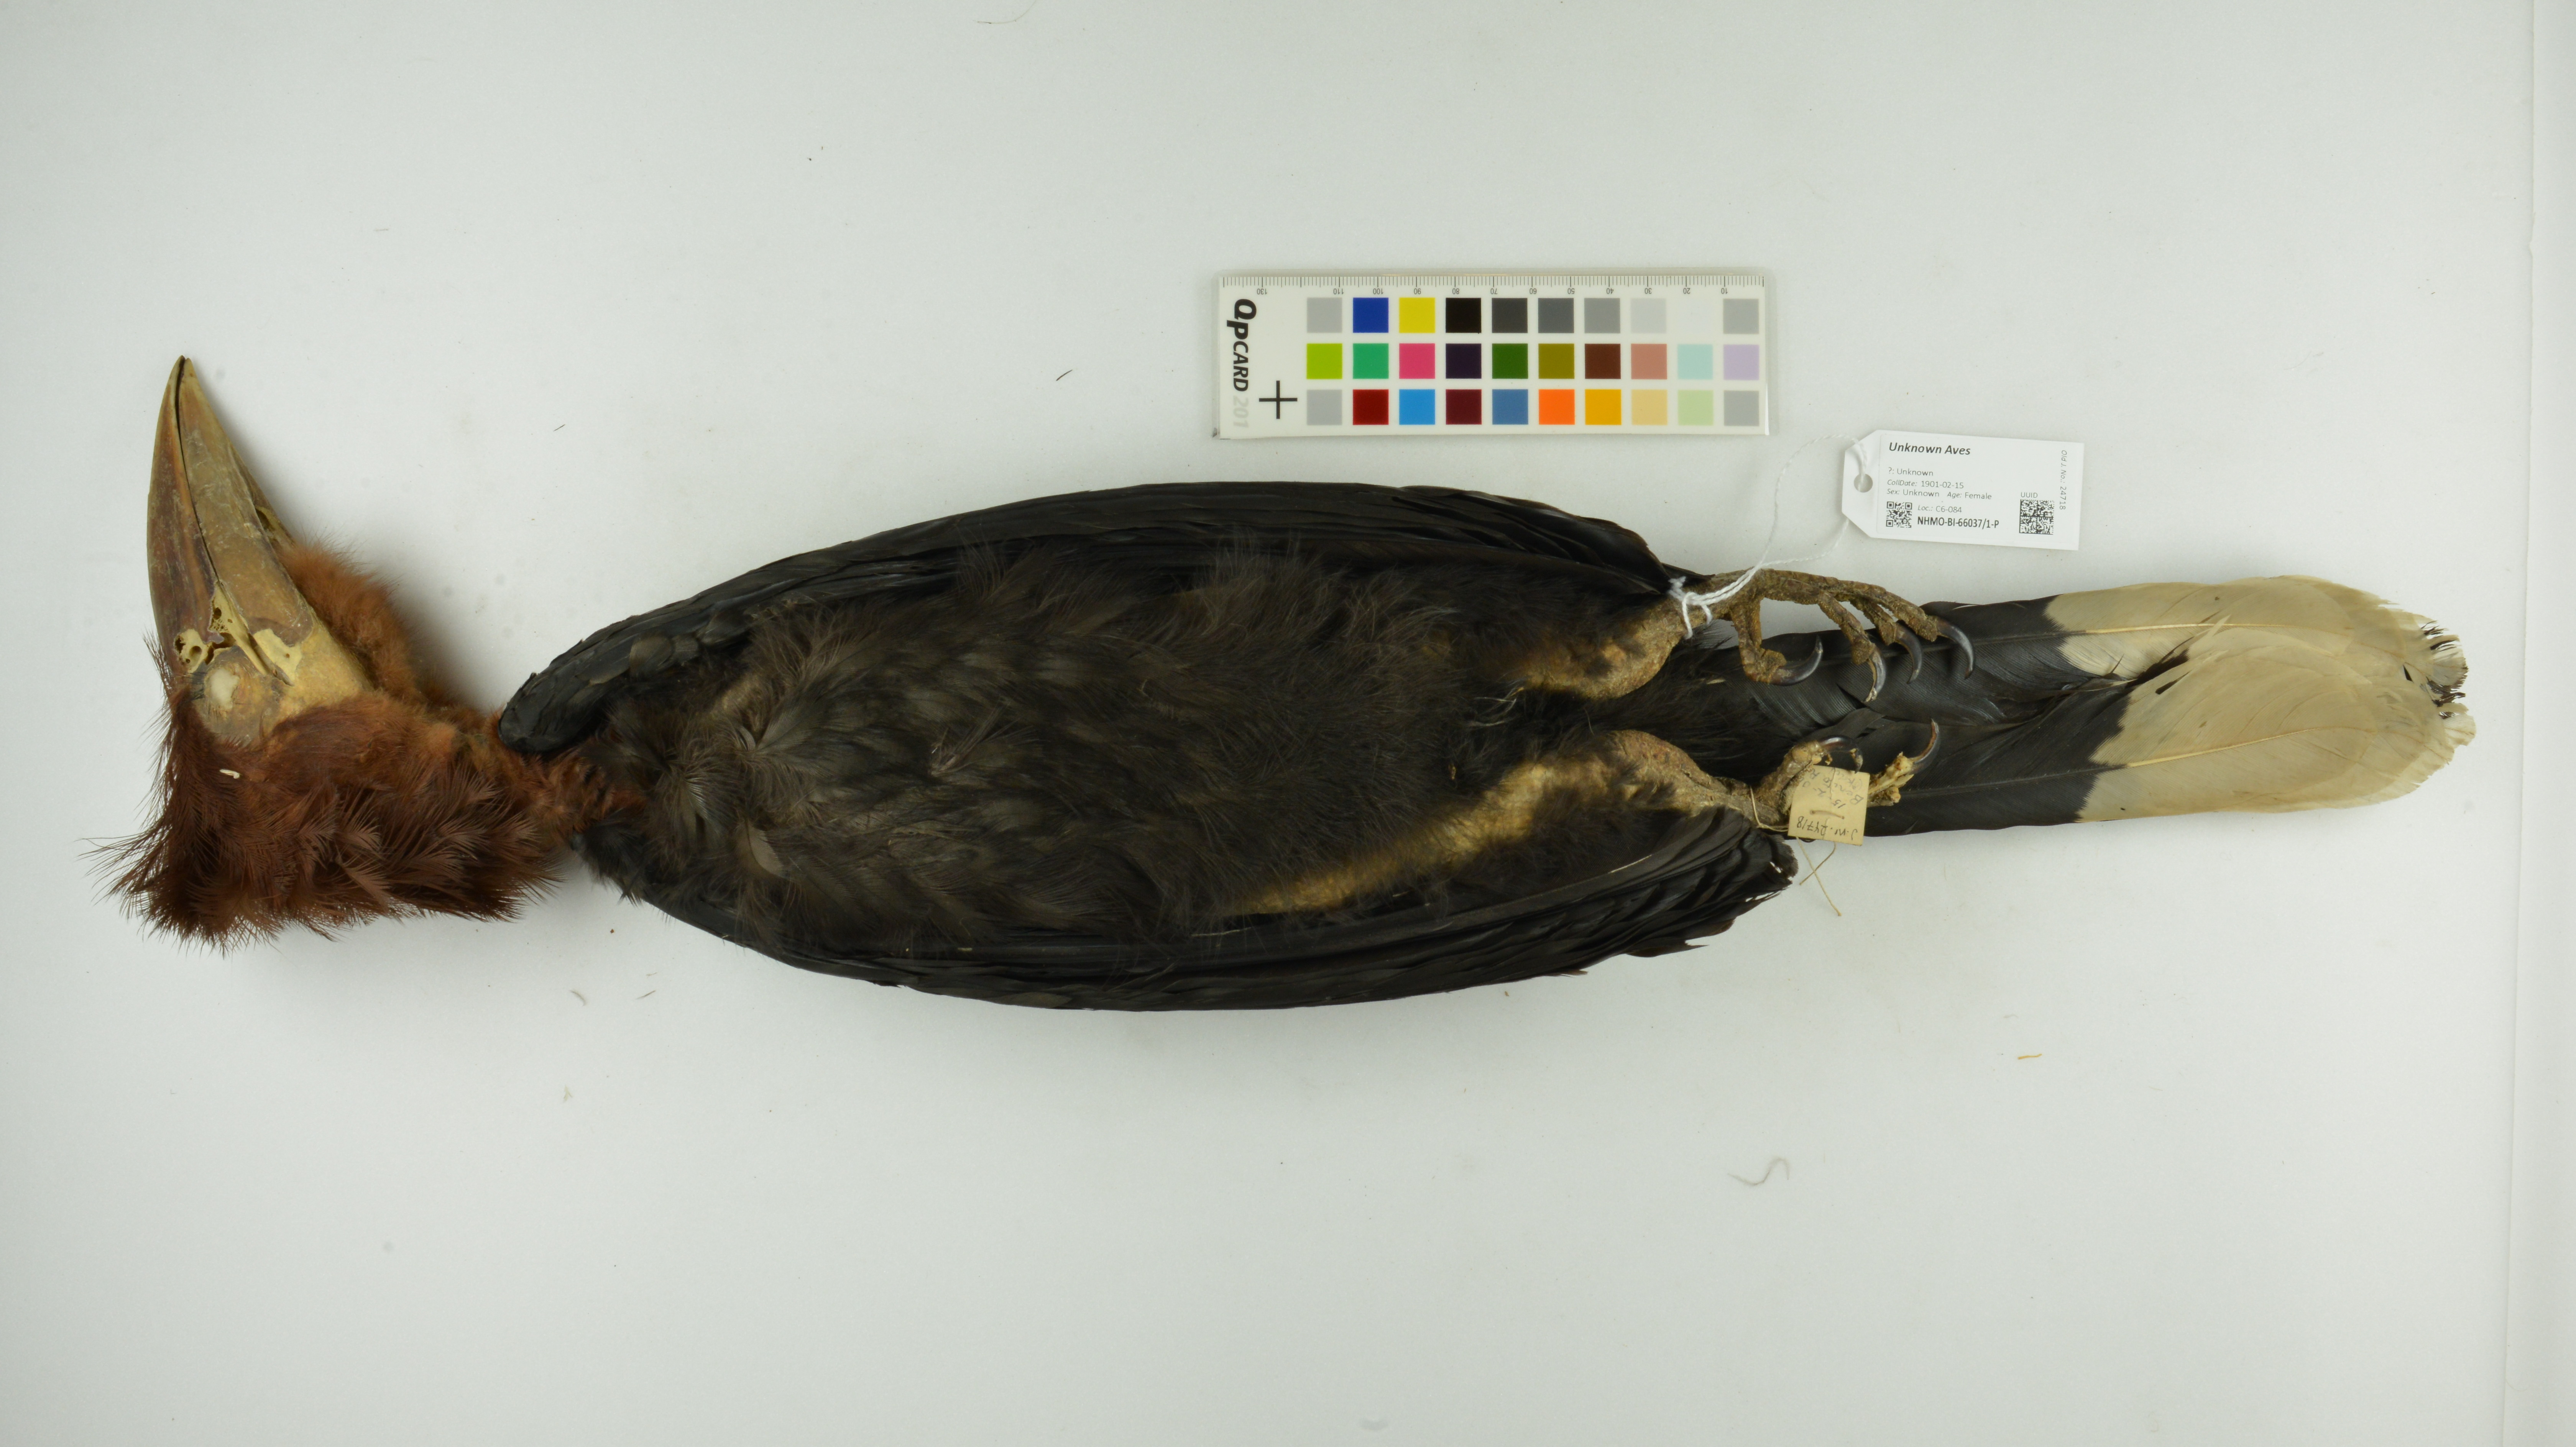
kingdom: Animalia
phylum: Chordata
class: Aves
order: Bucerotiformes
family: Bucerotidae
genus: Ceratogymna
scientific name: Ceratogymna atrata
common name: Black-casqued hornbill
